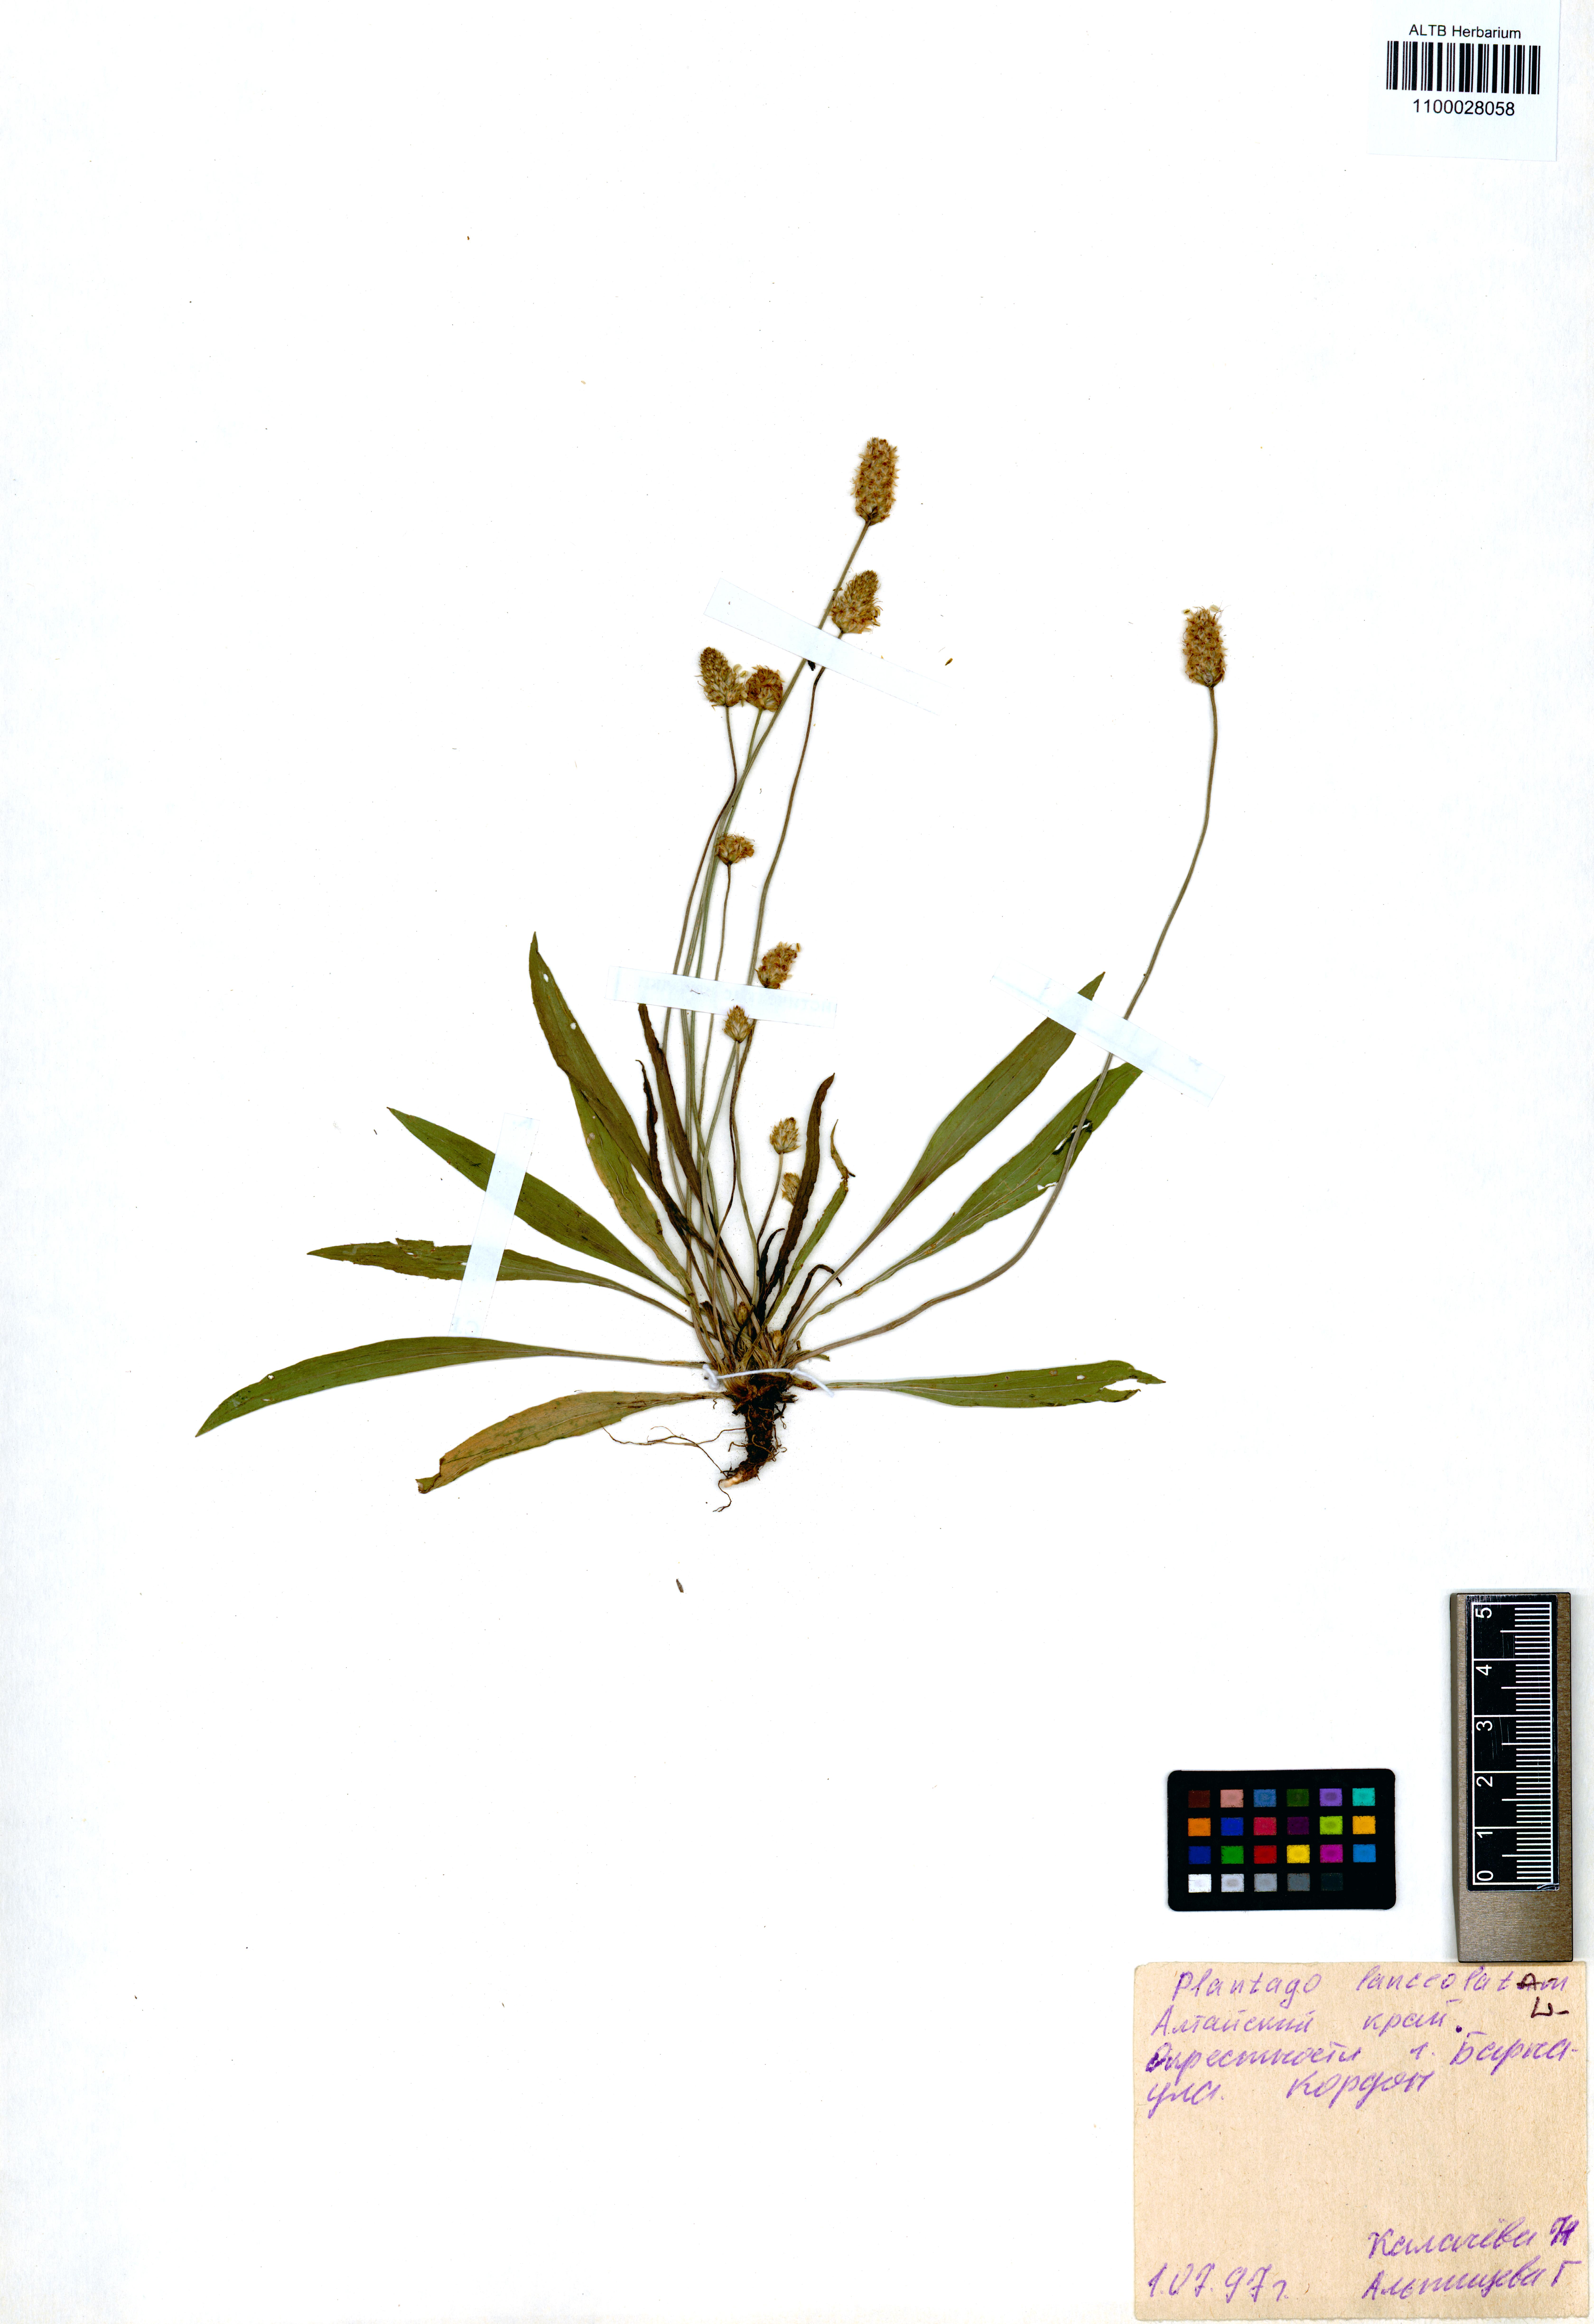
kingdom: Plantae
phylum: Tracheophyta
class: Magnoliopsida
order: Lamiales
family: Plantaginaceae
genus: Plantago
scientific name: Plantago lanceolata
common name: Ribwort plantain
